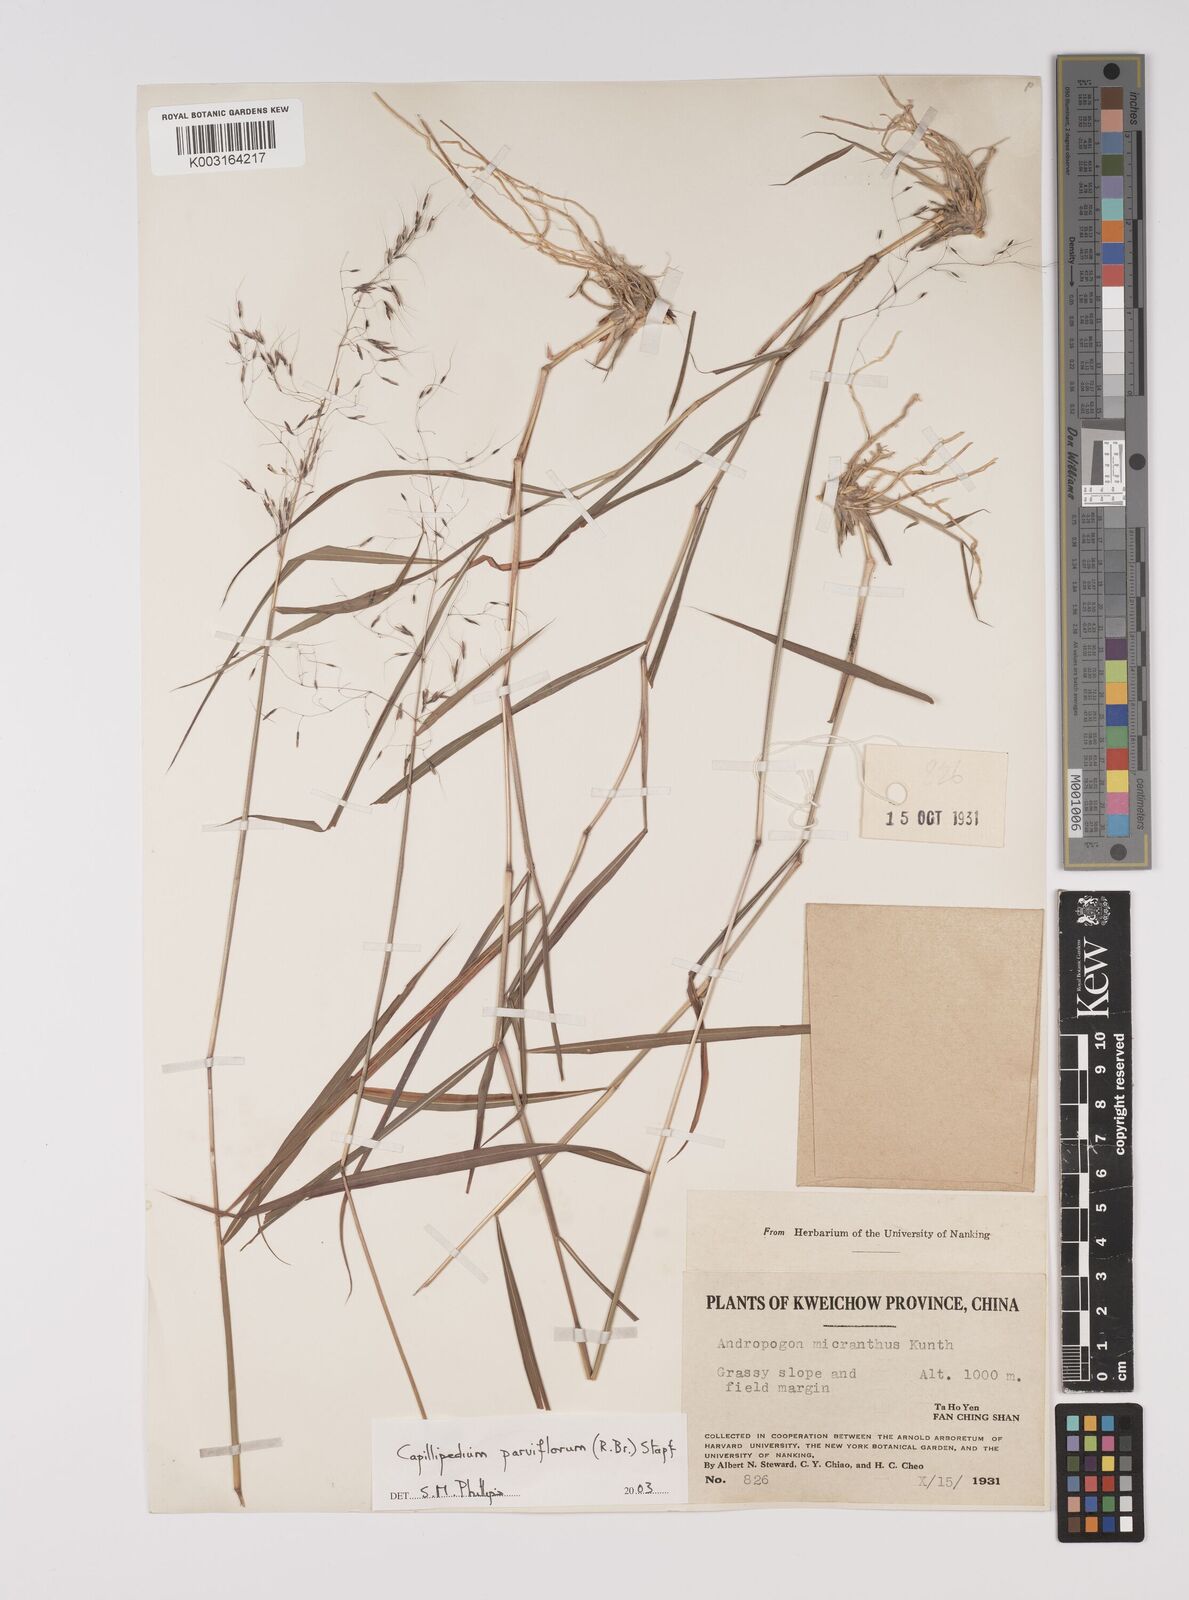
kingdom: Plantae
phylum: Tracheophyta
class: Liliopsida
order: Poales
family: Poaceae
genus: Capillipedium
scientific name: Capillipedium parviflorum
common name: Golden-beard
